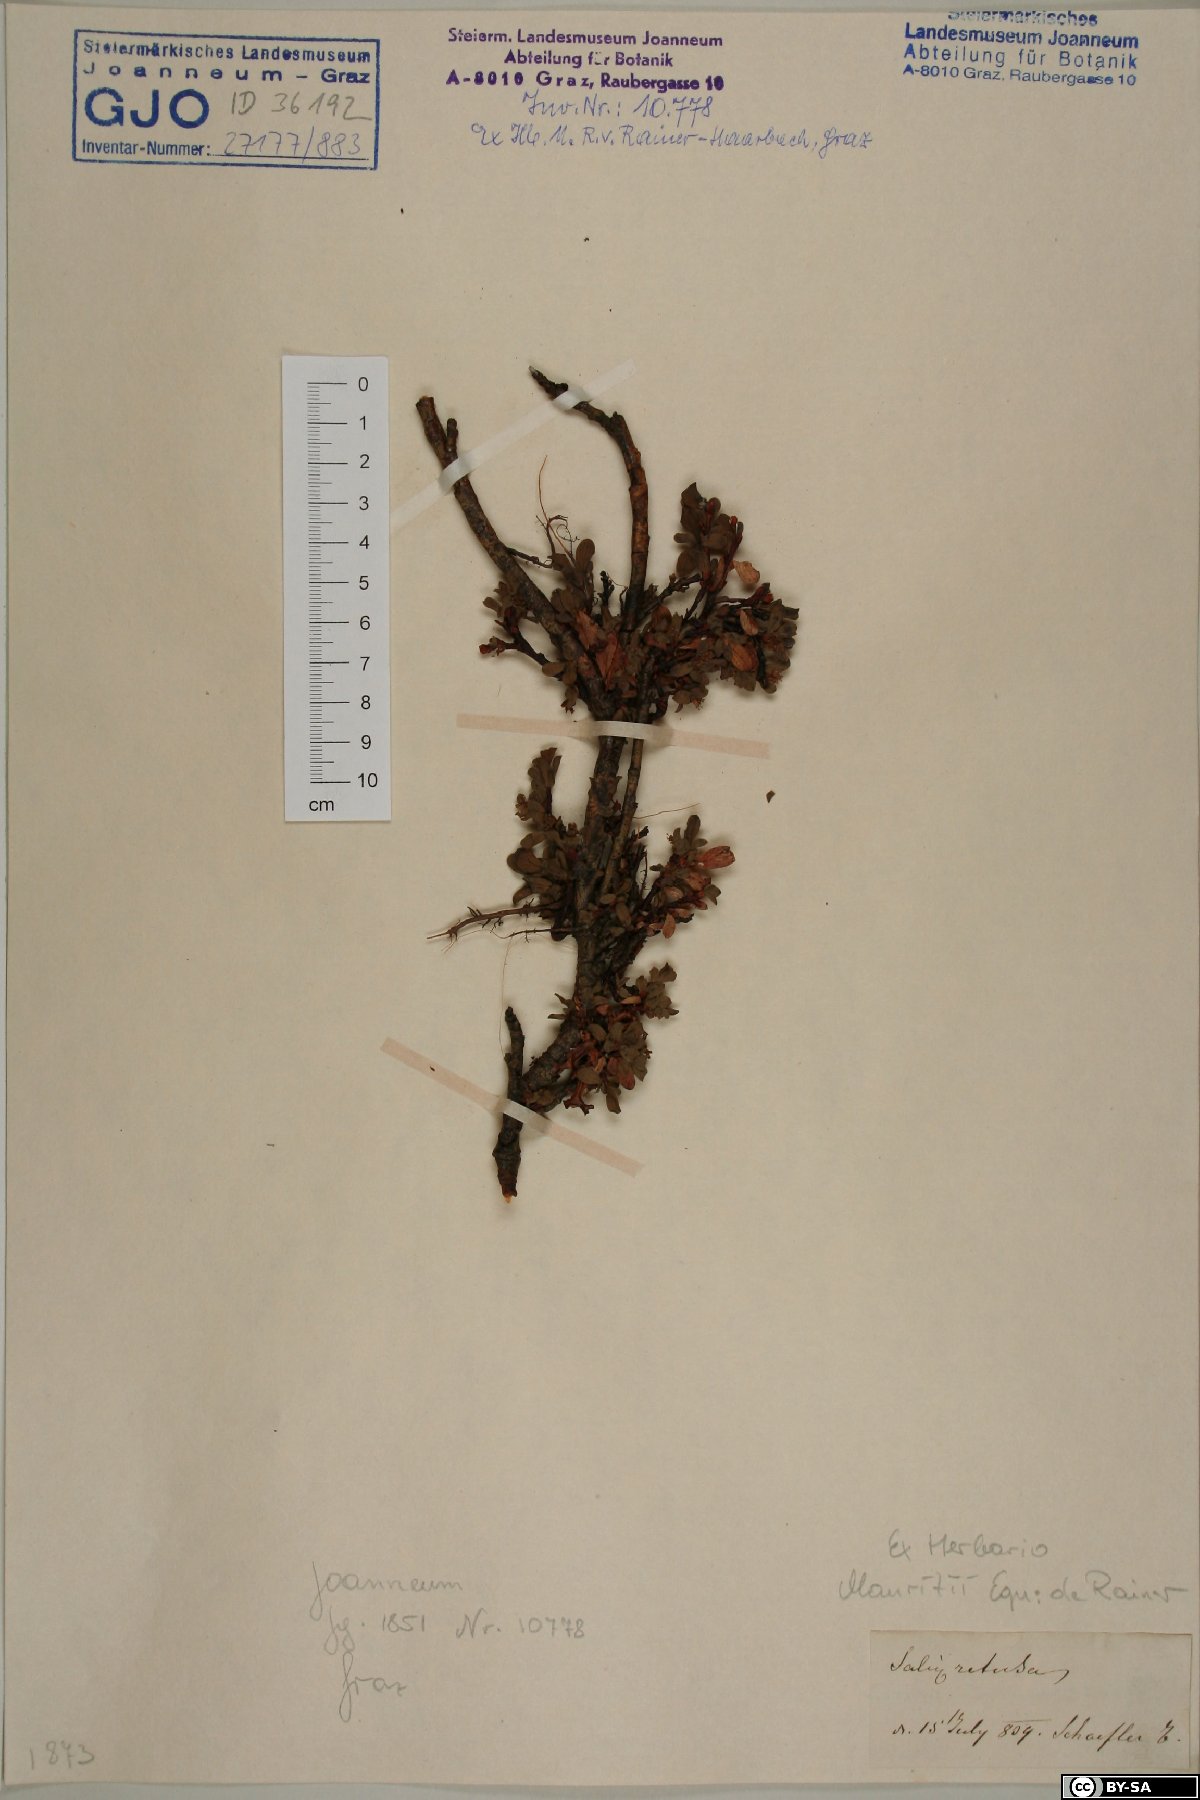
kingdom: Plantae
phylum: Tracheophyta
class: Magnoliopsida
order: Malpighiales
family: Salicaceae
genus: Salix
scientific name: Salix retusa
